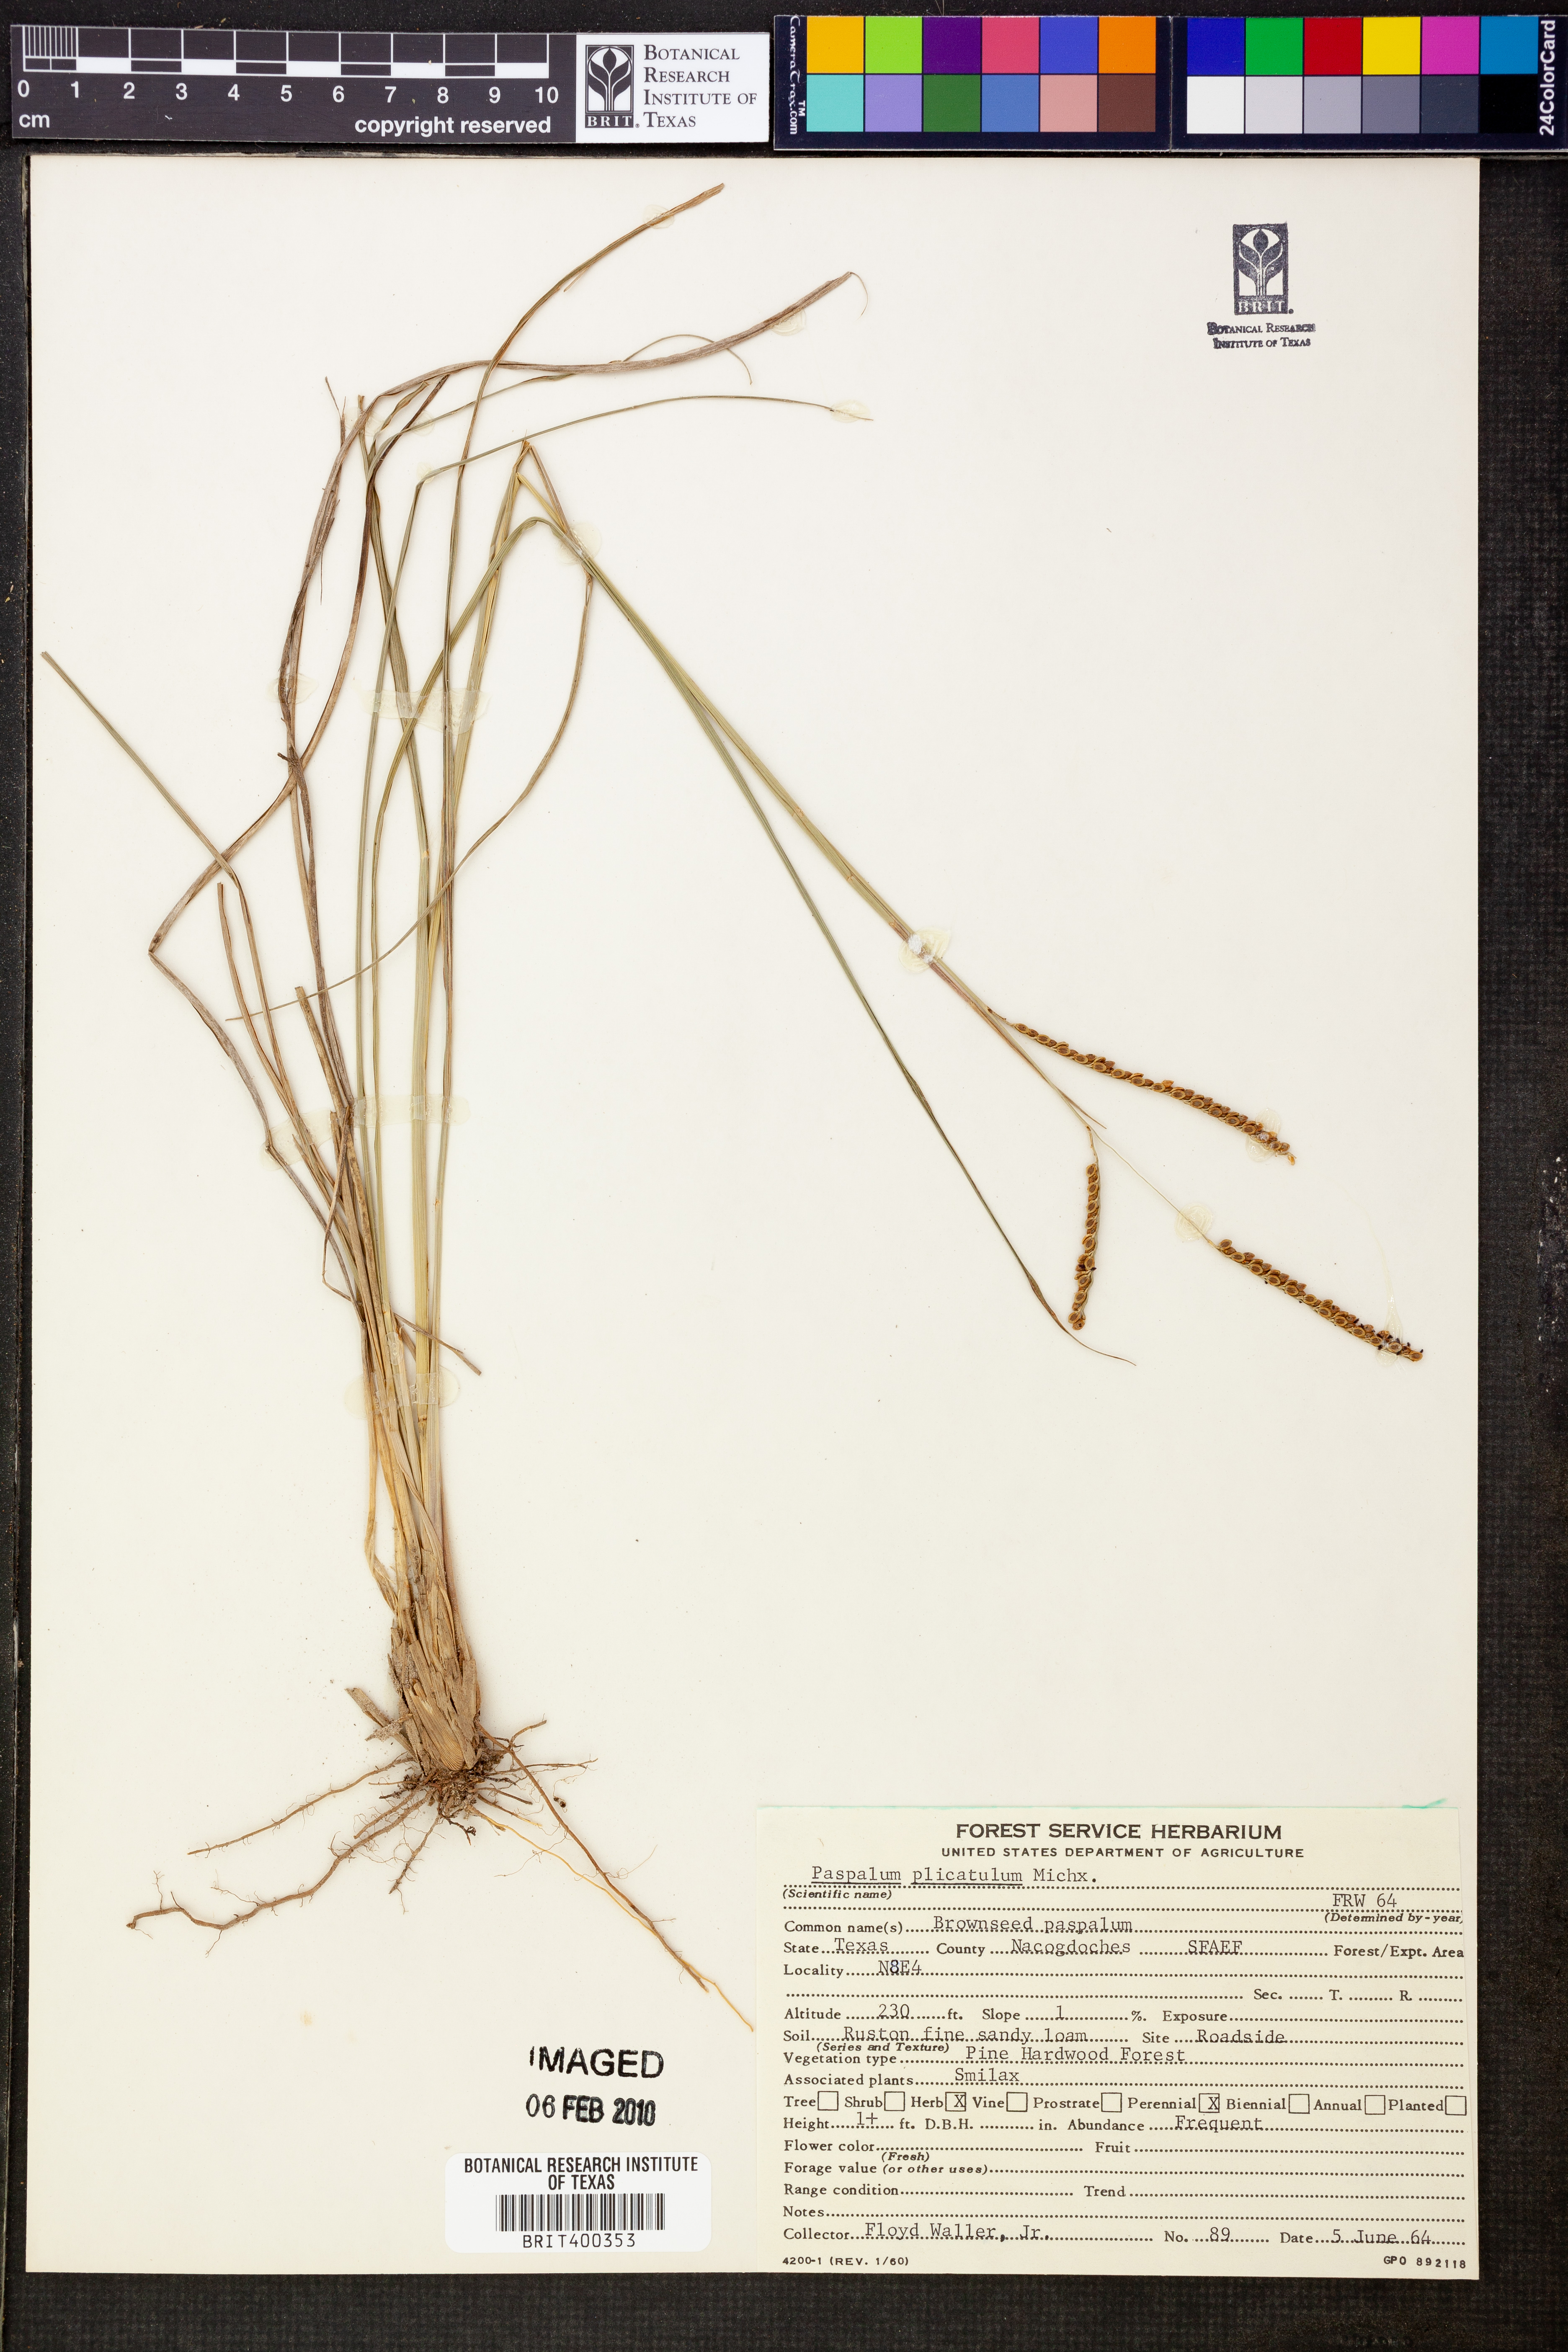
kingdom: Plantae
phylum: Tracheophyta
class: Liliopsida
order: Poales
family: Poaceae
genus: Paspalum
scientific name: Paspalum plicatulum
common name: Top paspalum
